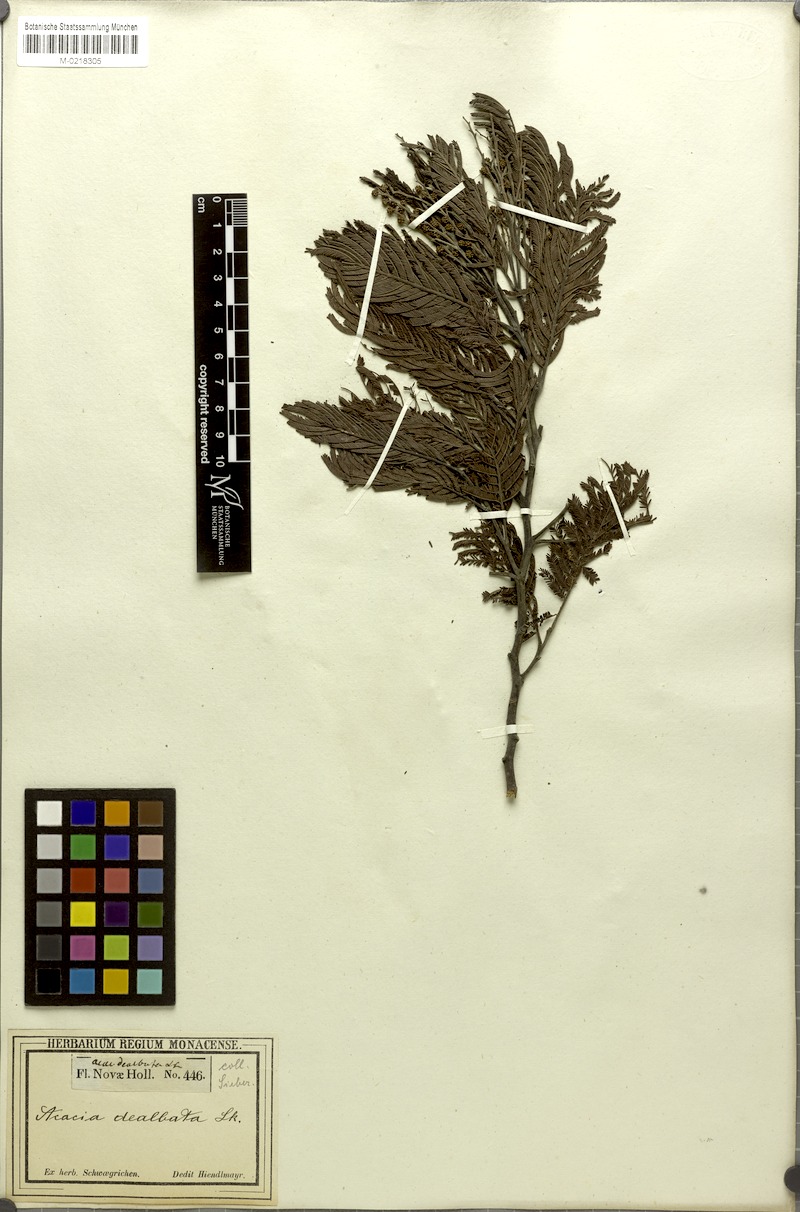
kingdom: Plantae
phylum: Tracheophyta
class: Magnoliopsida
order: Fabales
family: Fabaceae
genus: Acacia
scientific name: Acacia dealbata
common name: Silver wattle
